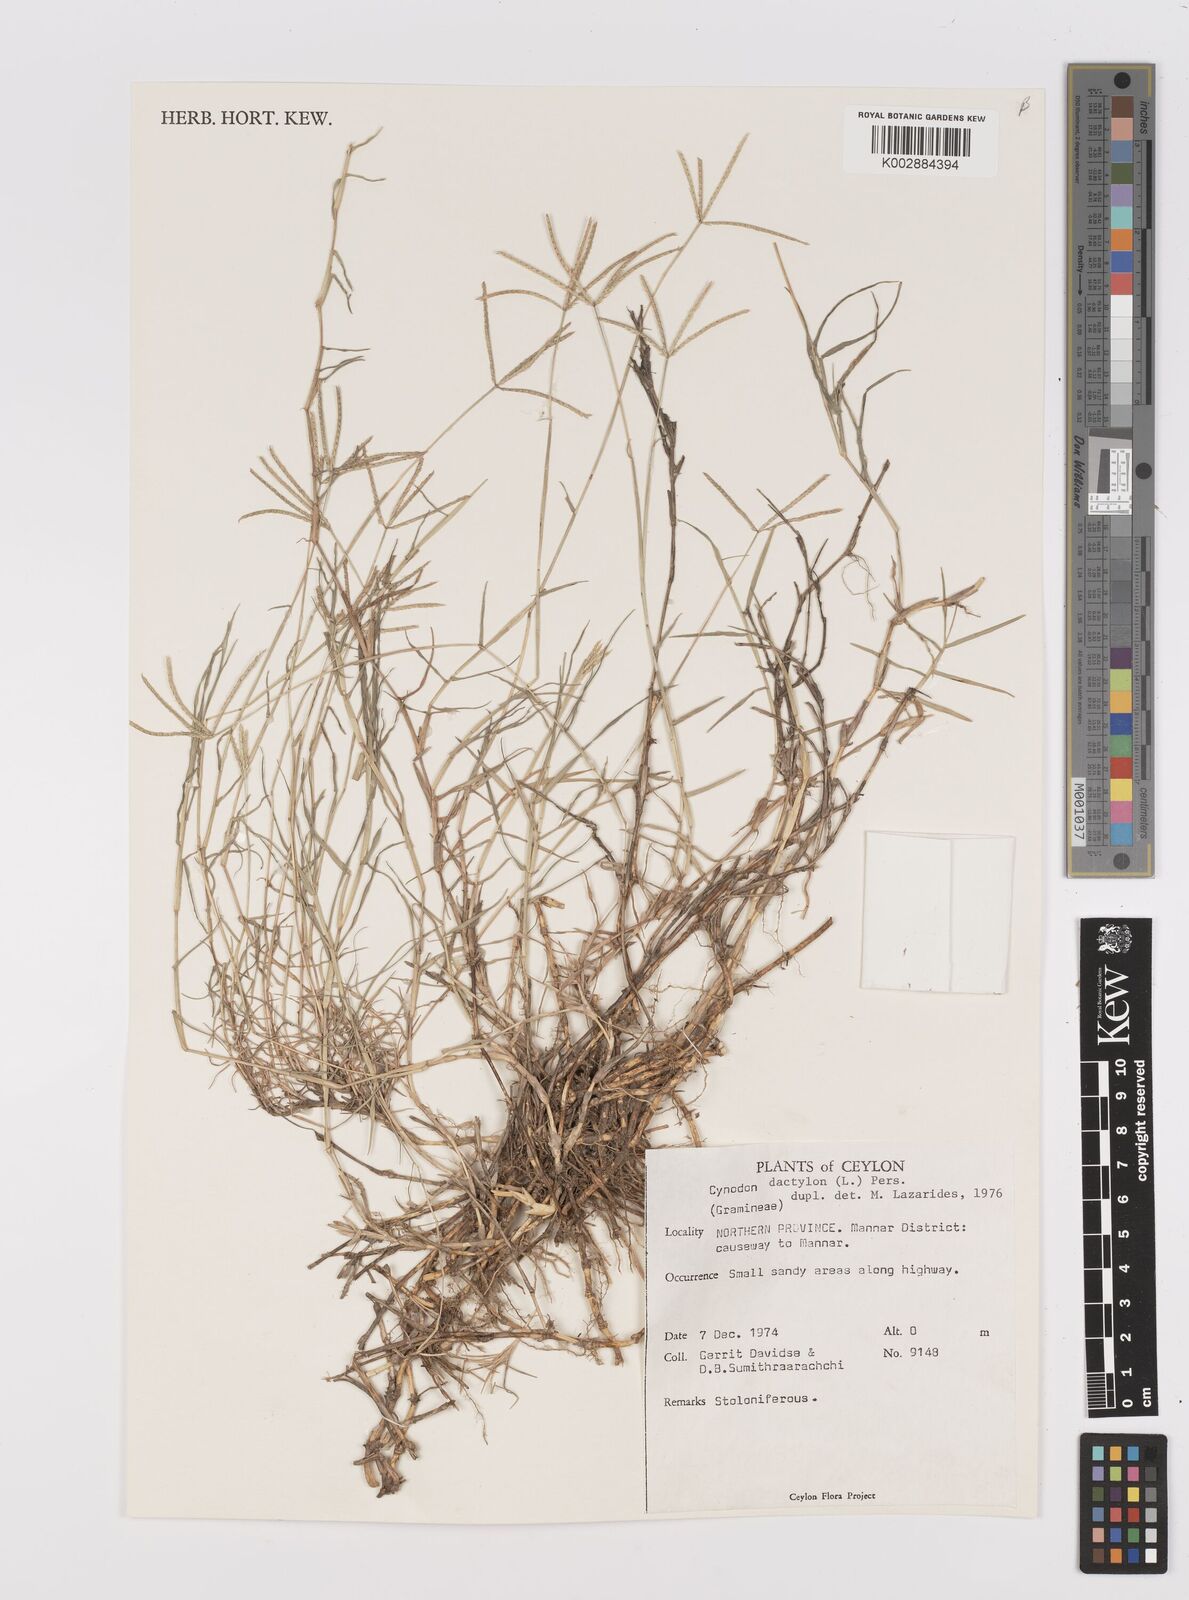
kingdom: Plantae
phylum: Tracheophyta
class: Liliopsida
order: Poales
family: Poaceae
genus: Cynodon
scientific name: Cynodon dactylon
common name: Bermuda grass
